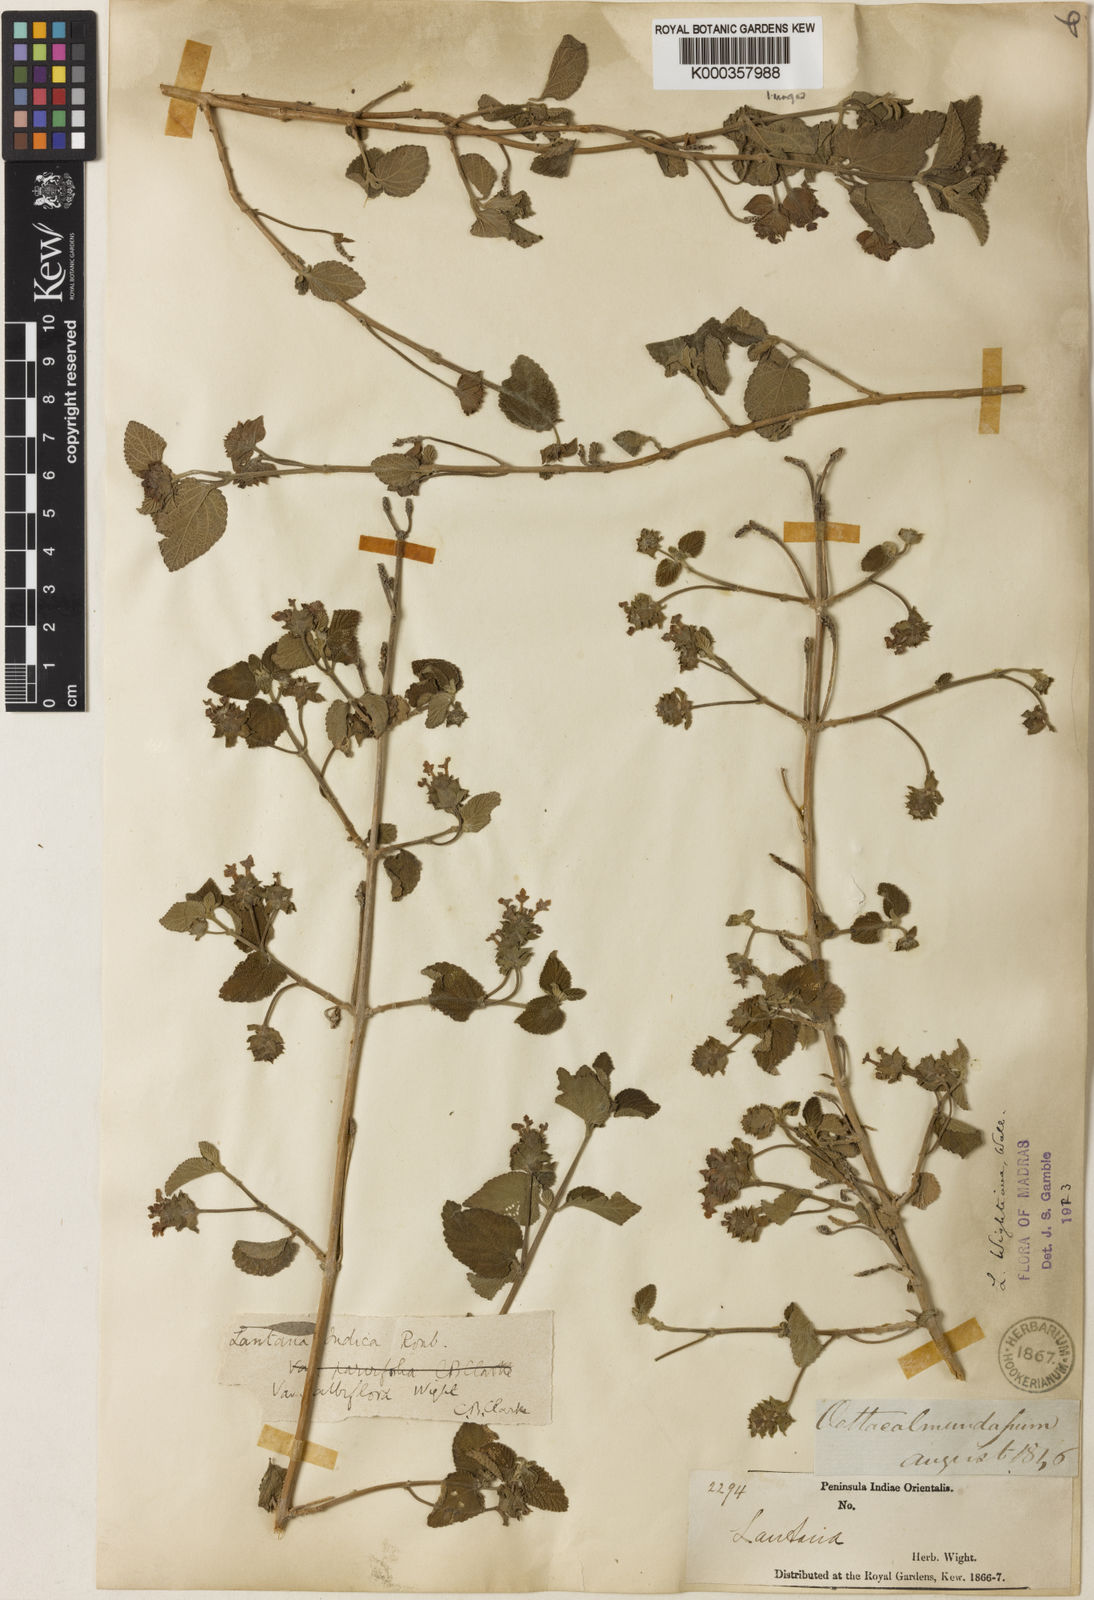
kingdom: Plantae
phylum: Tracheophyta
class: Magnoliopsida
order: Lamiales
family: Verbenaceae
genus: Lantana
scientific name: Lantana indica
